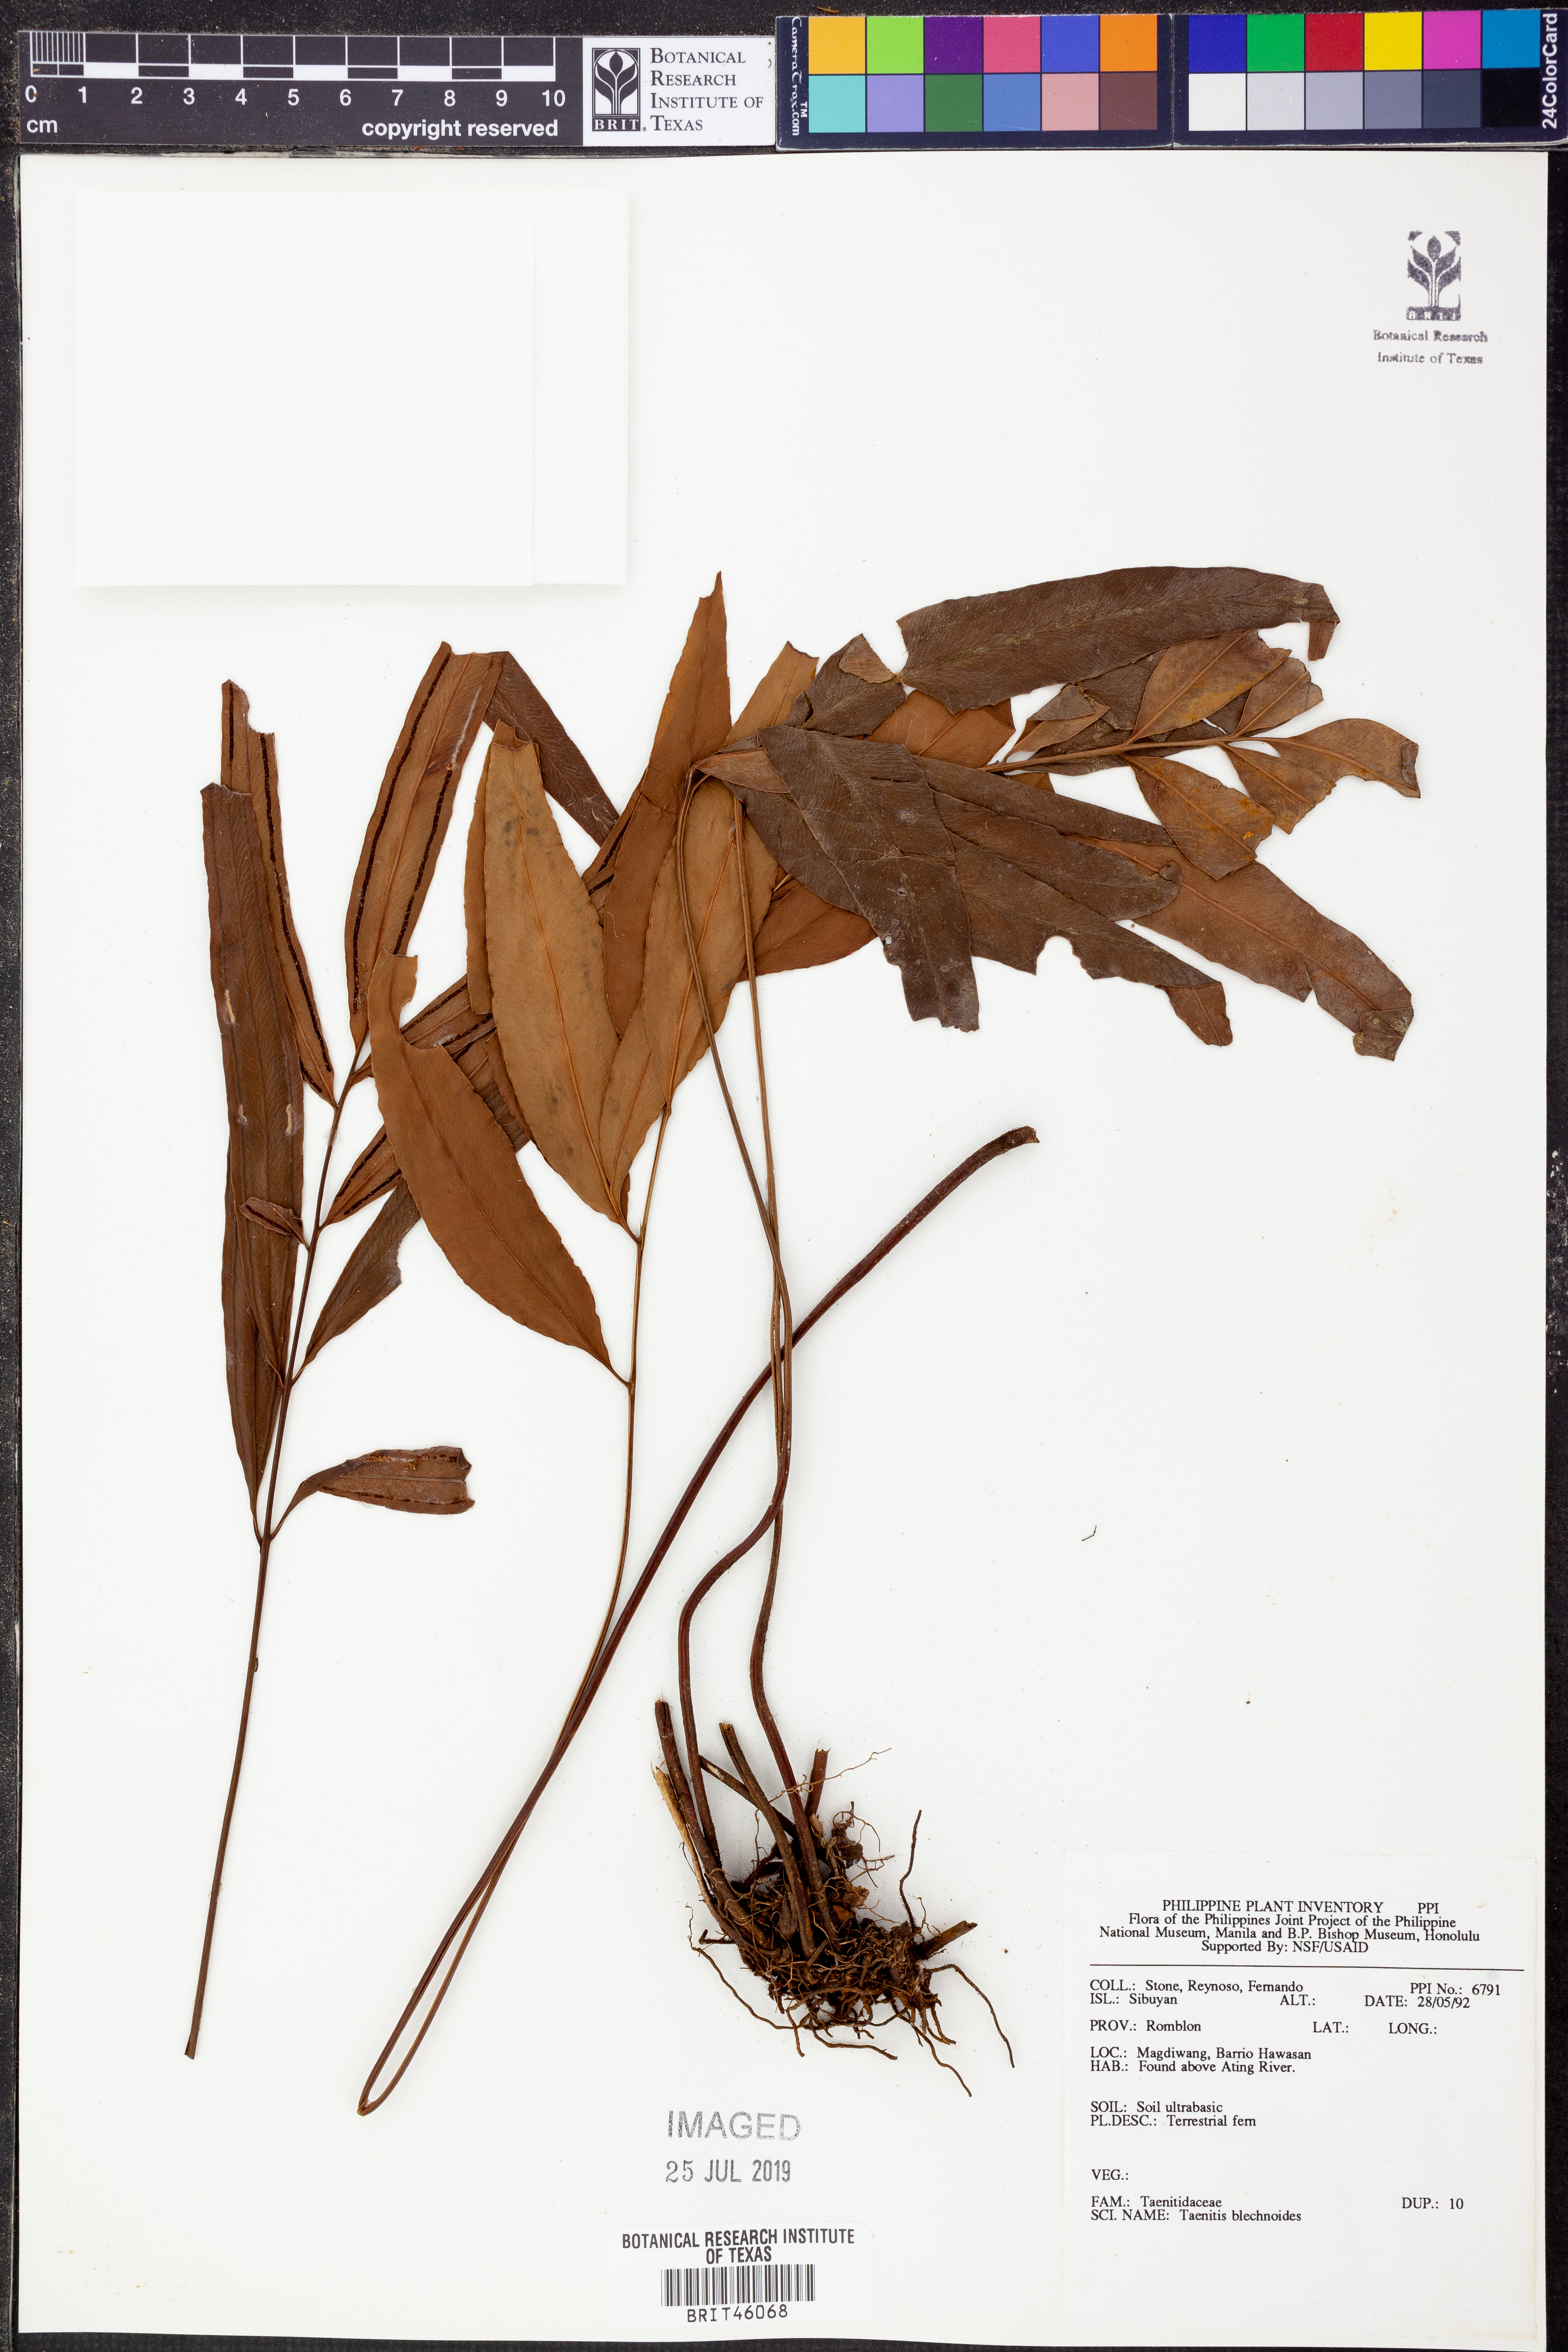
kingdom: Plantae
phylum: Tracheophyta
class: Polypodiopsida
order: Polypodiales
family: Pteridaceae
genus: Taenitis
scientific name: Taenitis blechnoides
